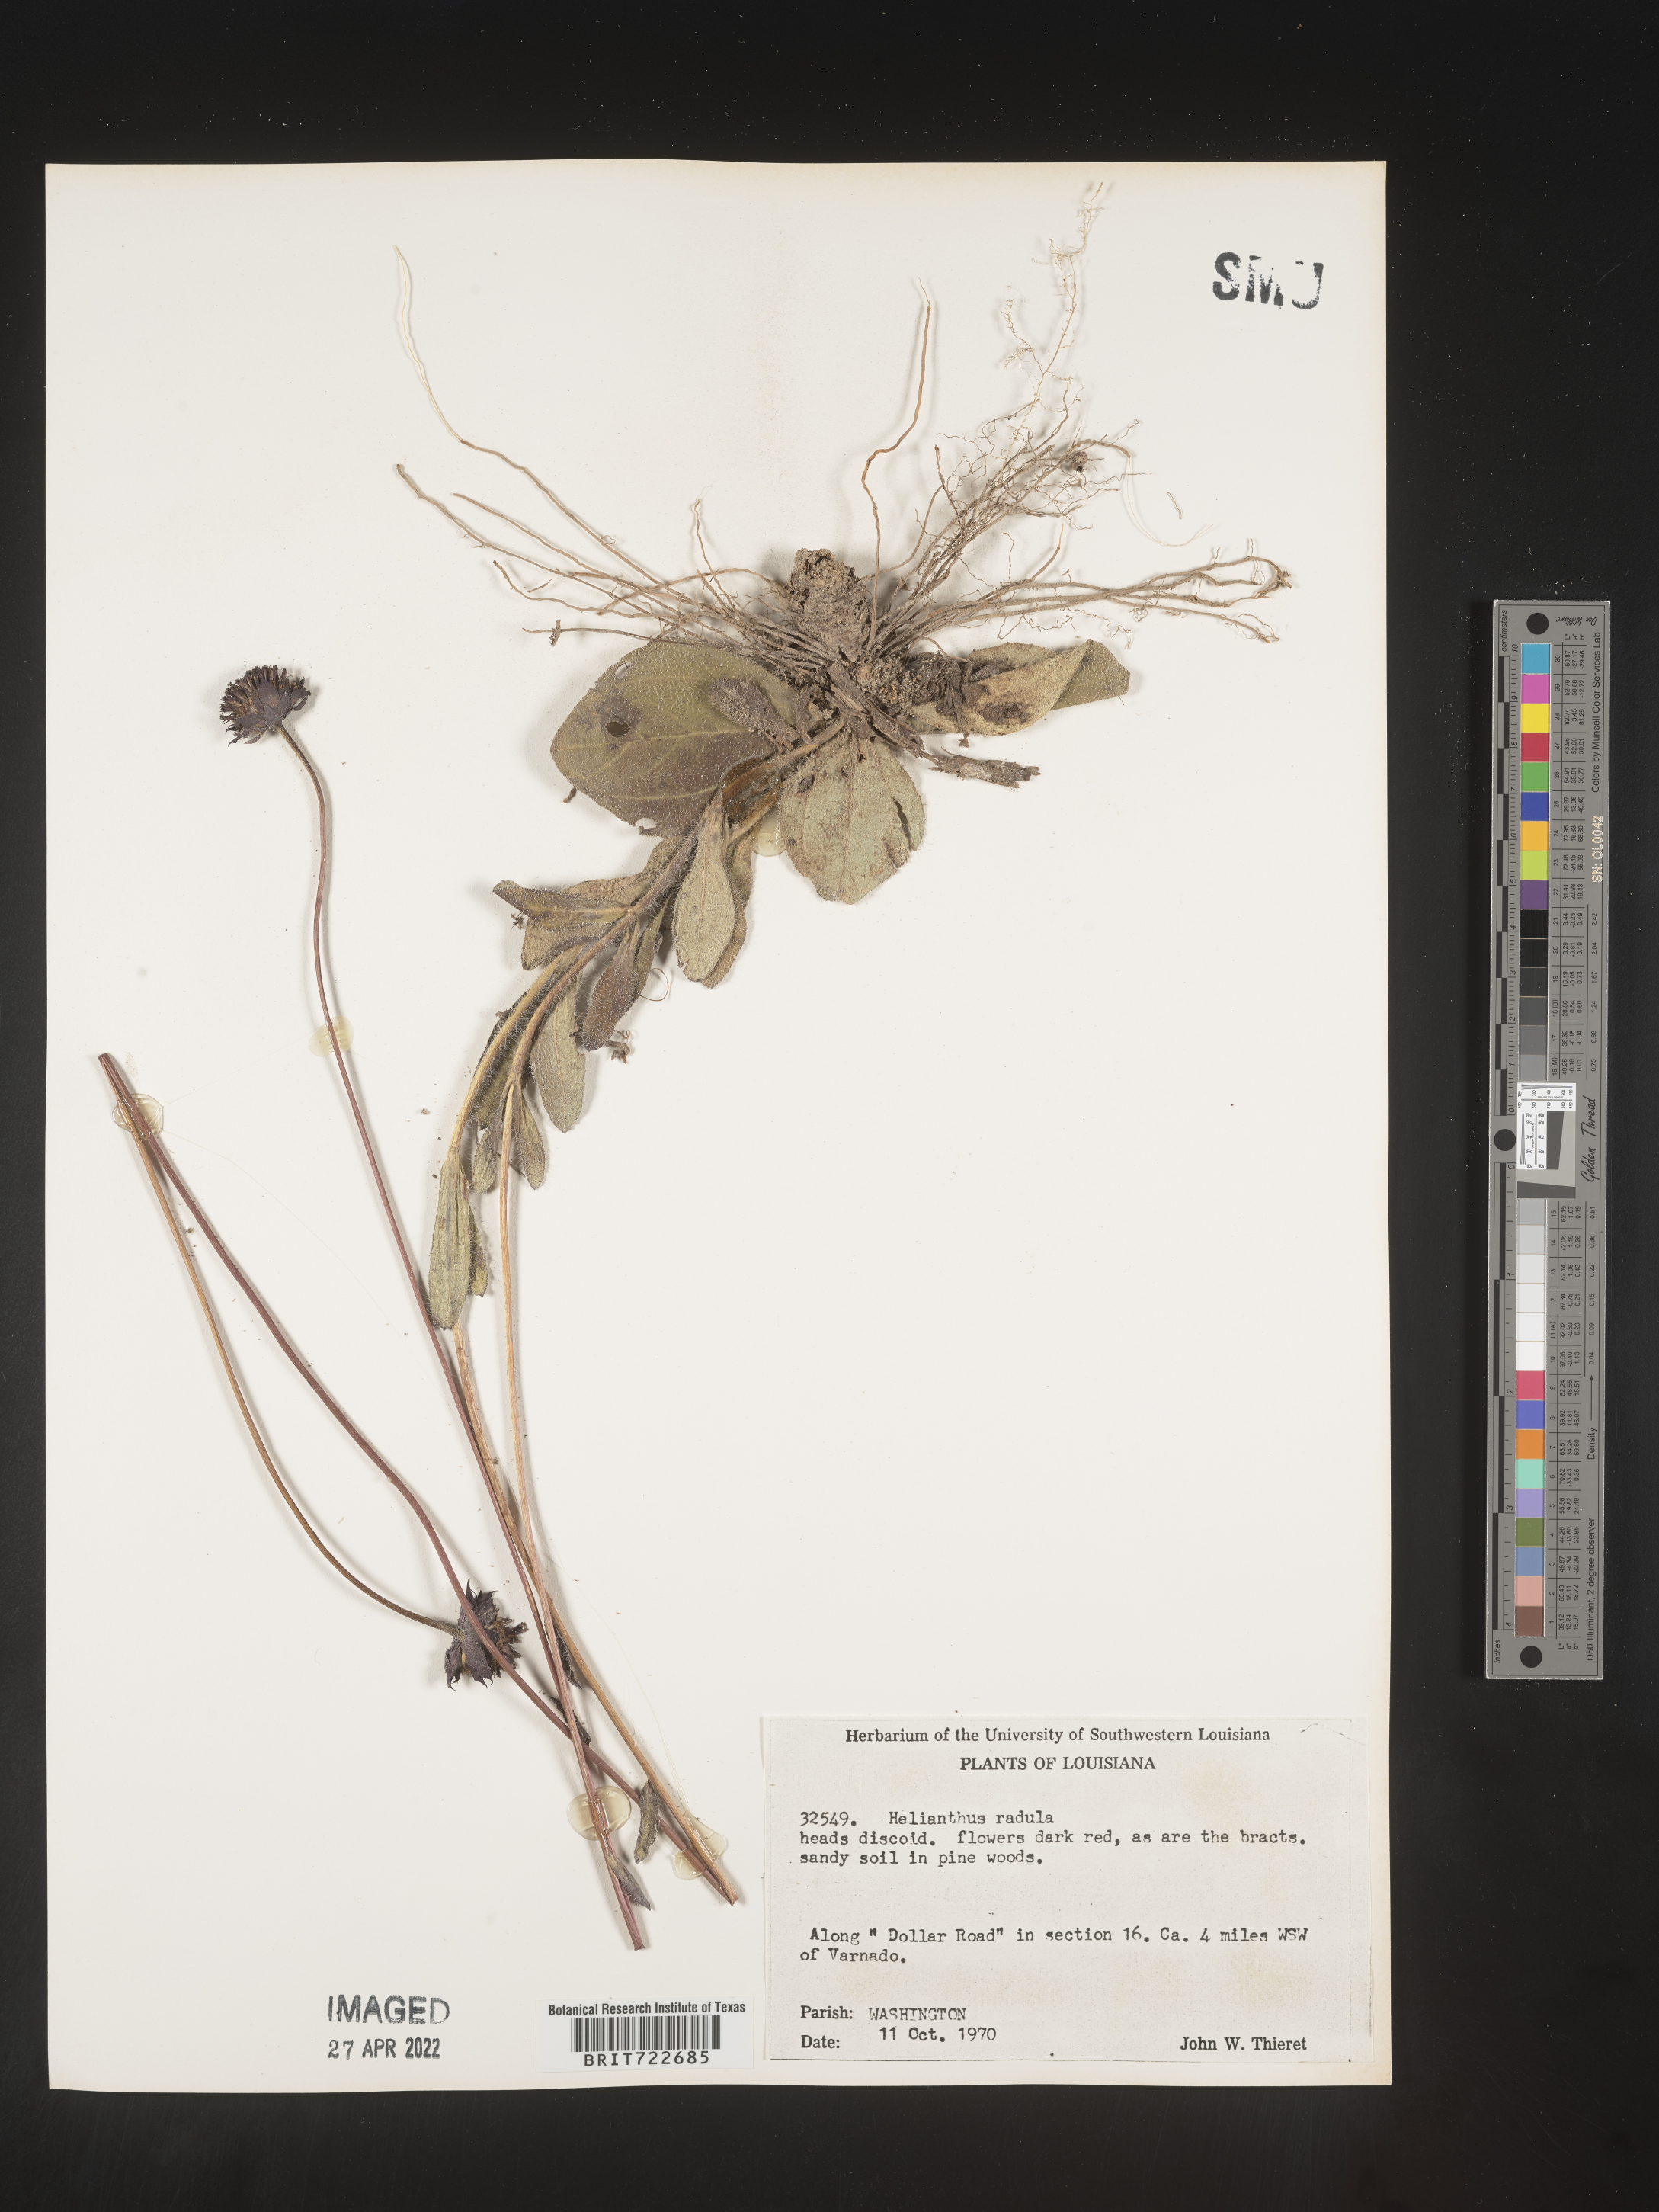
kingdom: Plantae
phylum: Tracheophyta
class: Magnoliopsida
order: Asterales
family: Asteraceae
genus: Helianthus
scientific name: Helianthus radula
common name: Pineland sunflower
